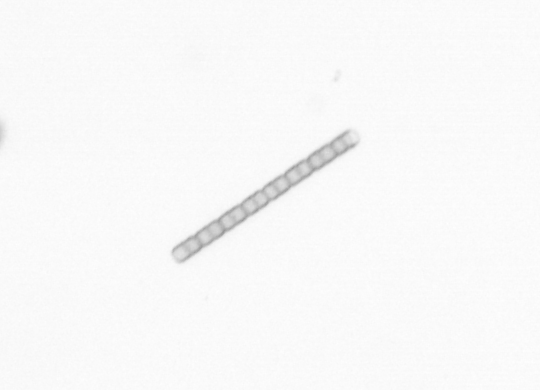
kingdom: Chromista
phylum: Ochrophyta
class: Bacillariophyceae
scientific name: Bacillariophyceae
